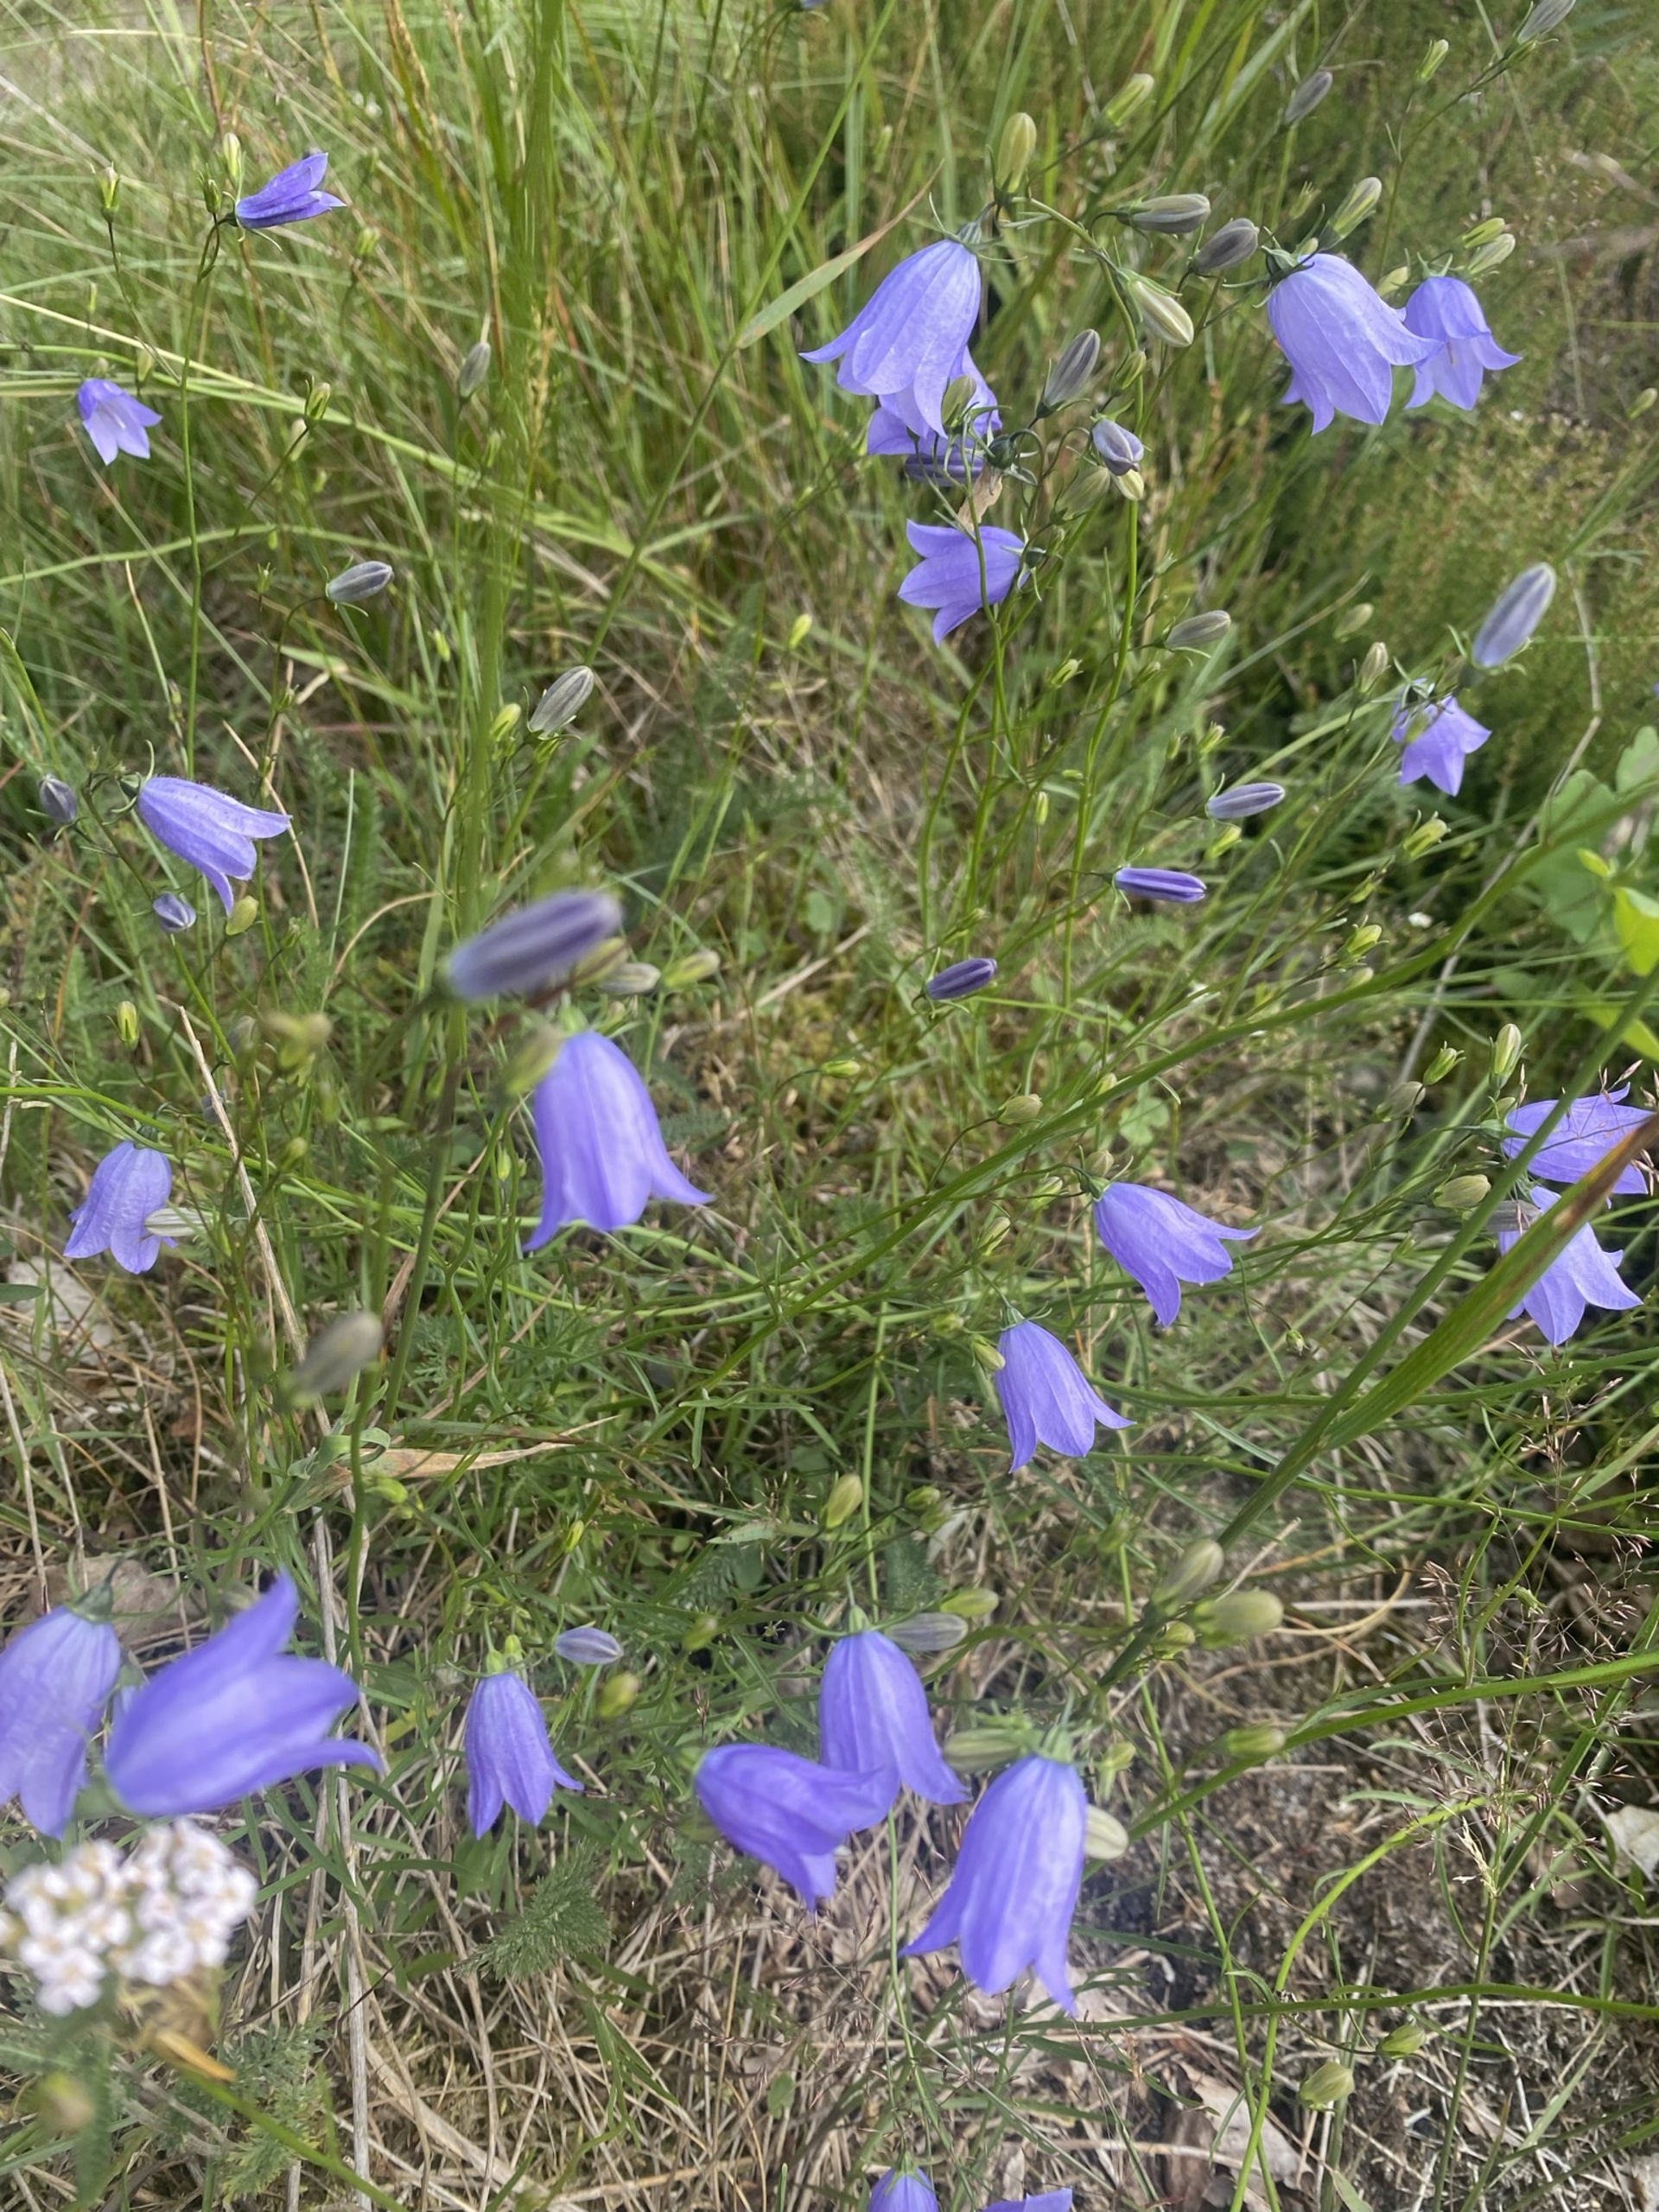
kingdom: Plantae
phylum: Tracheophyta
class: Magnoliopsida
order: Asterales
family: Campanulaceae
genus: Campanula
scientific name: Campanula rotundifolia
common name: Liden klokke
